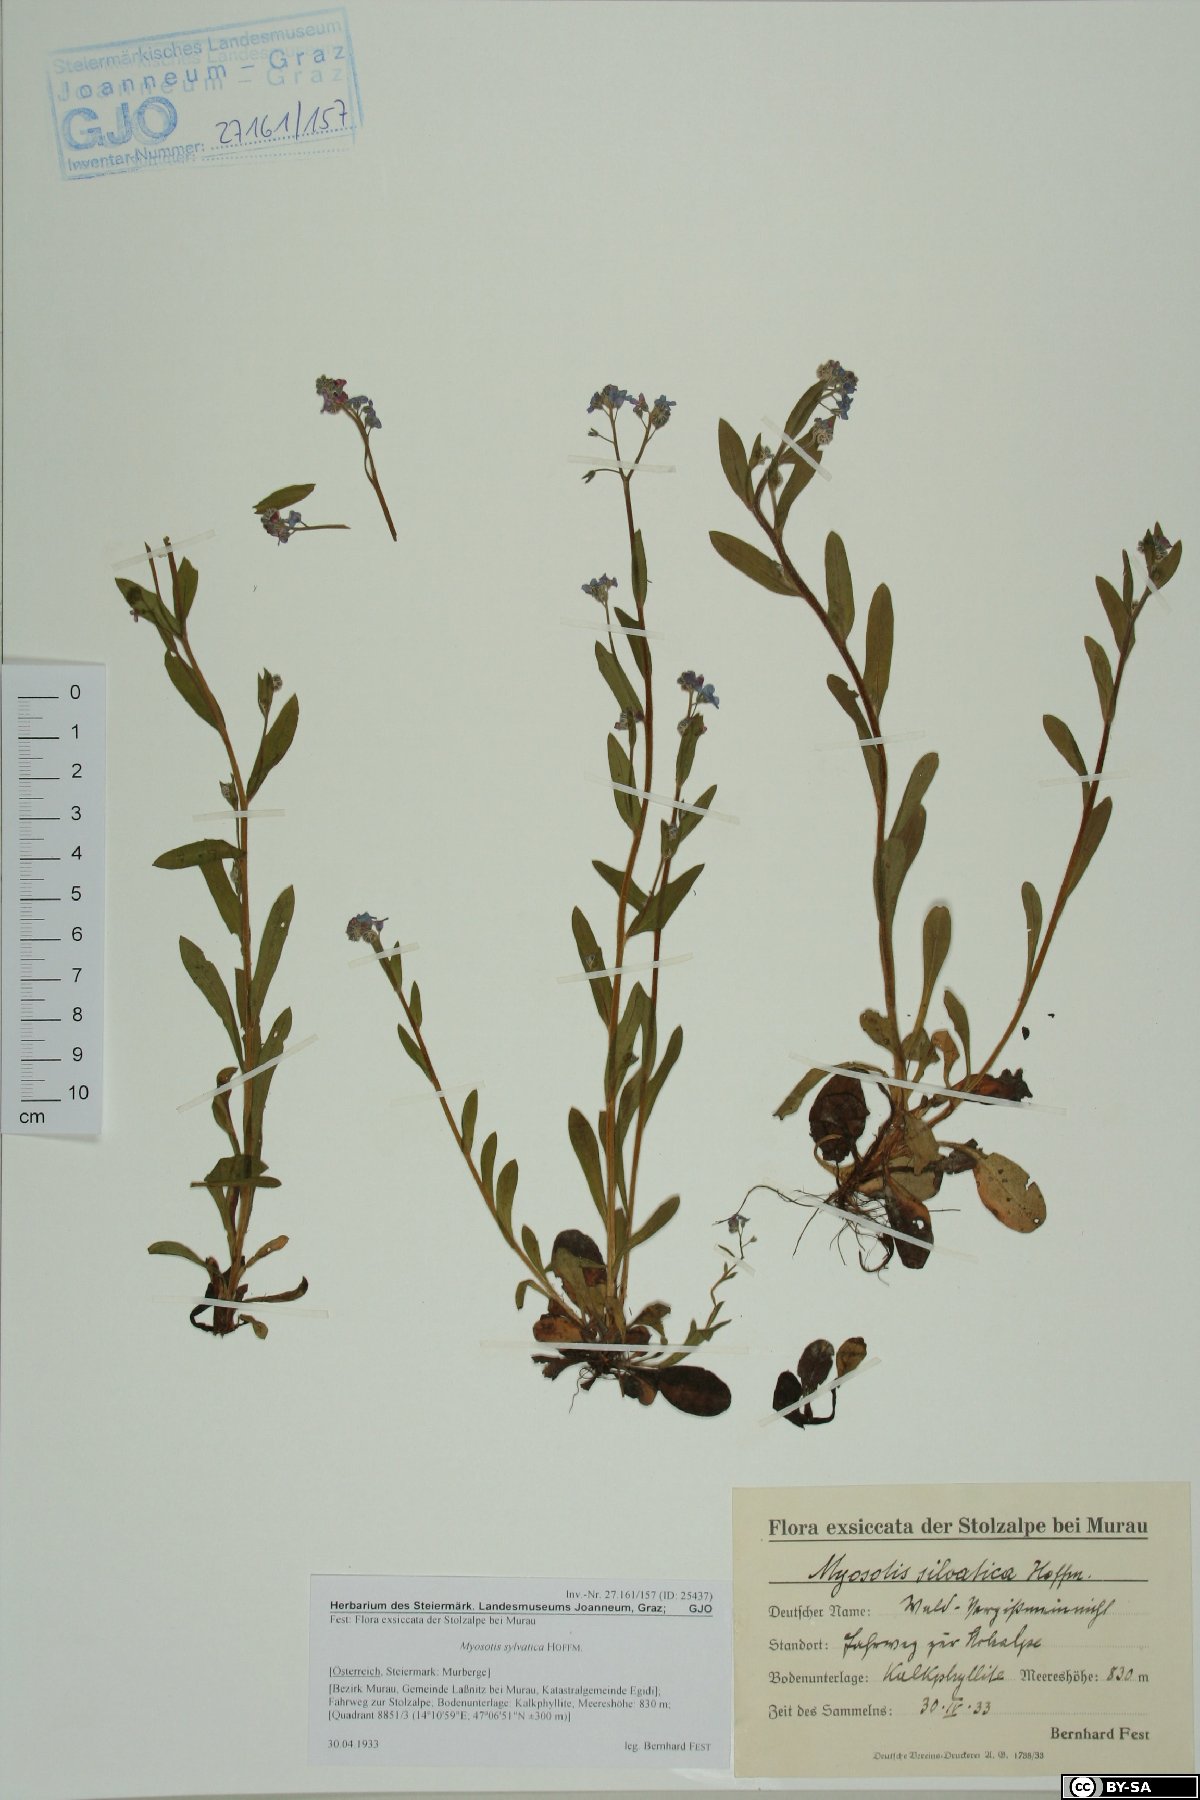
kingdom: Plantae
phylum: Tracheophyta
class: Magnoliopsida
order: Boraginales
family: Boraginaceae
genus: Myosotis
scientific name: Myosotis sylvatica
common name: Wood forget-me-not
